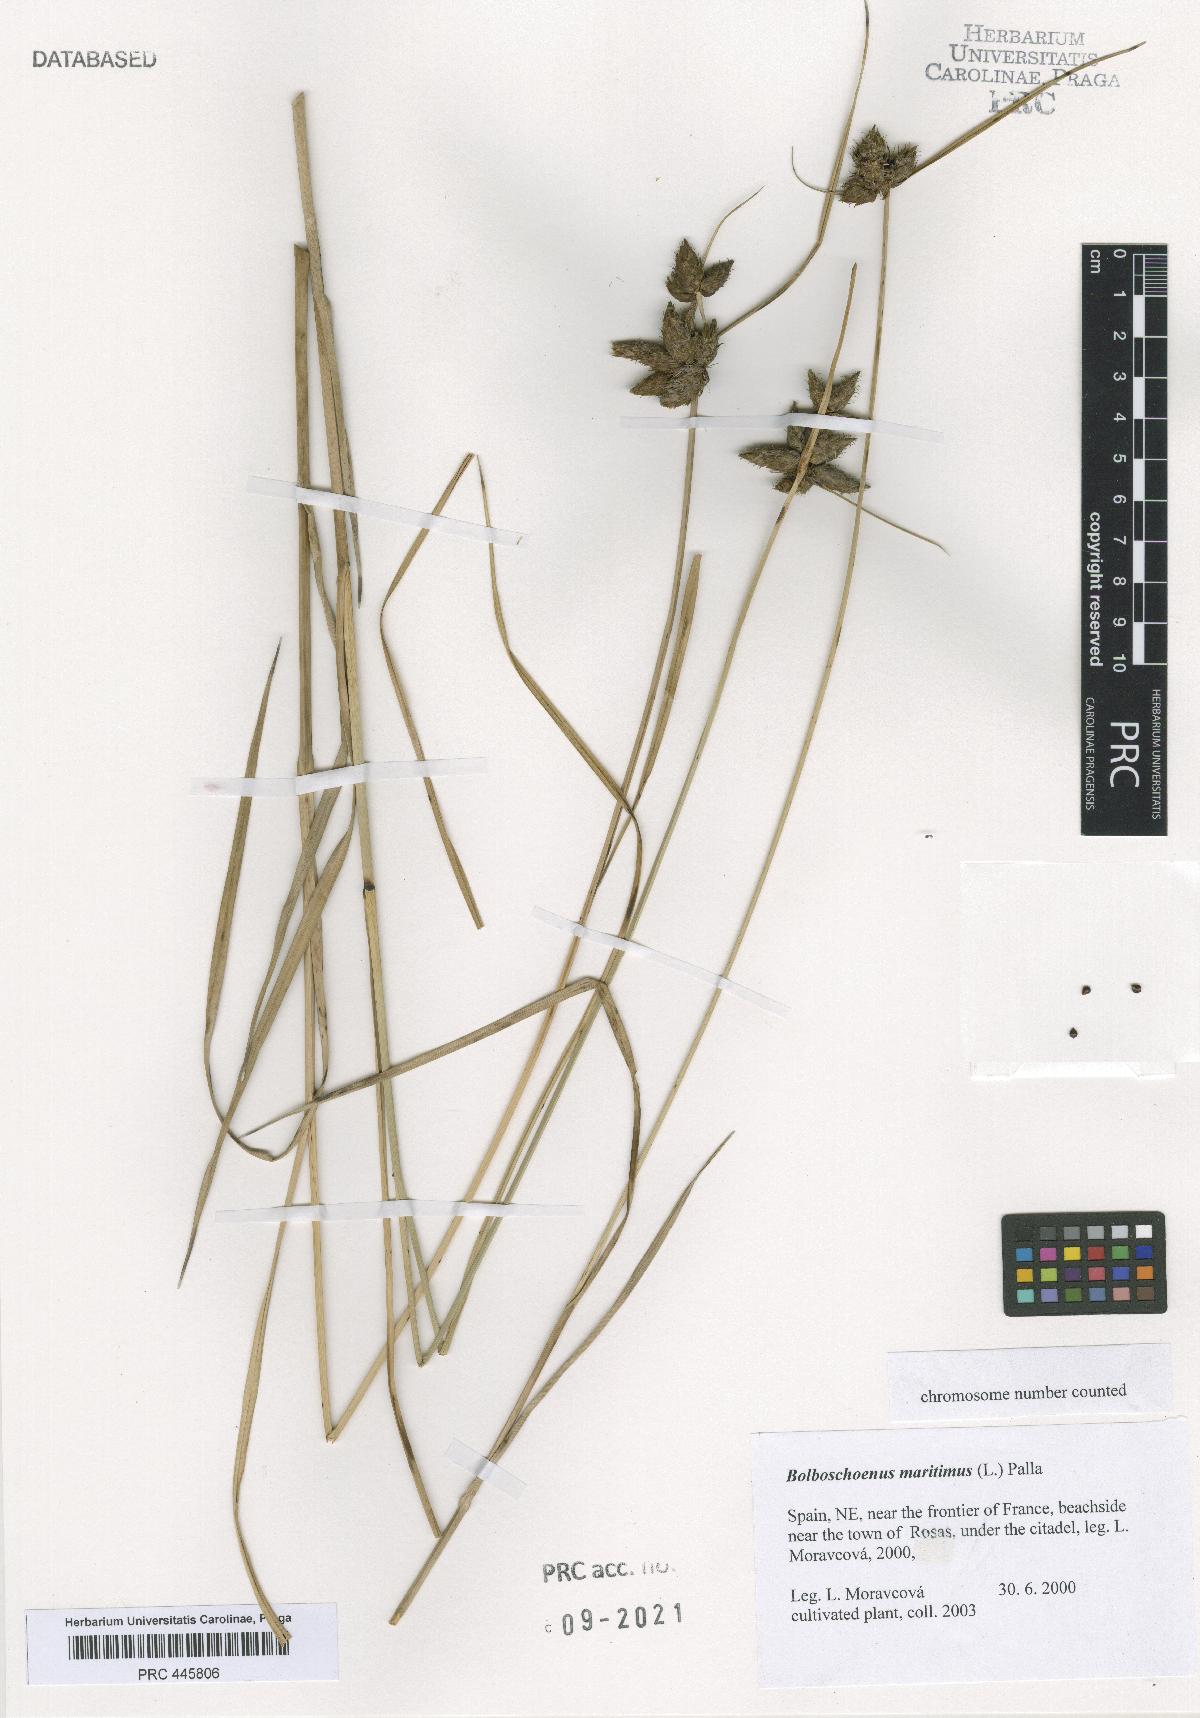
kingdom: Plantae
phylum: Tracheophyta
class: Liliopsida
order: Poales
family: Cyperaceae
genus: Bolboschoenus
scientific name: Bolboschoenus maritimus
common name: Sea club-rush
